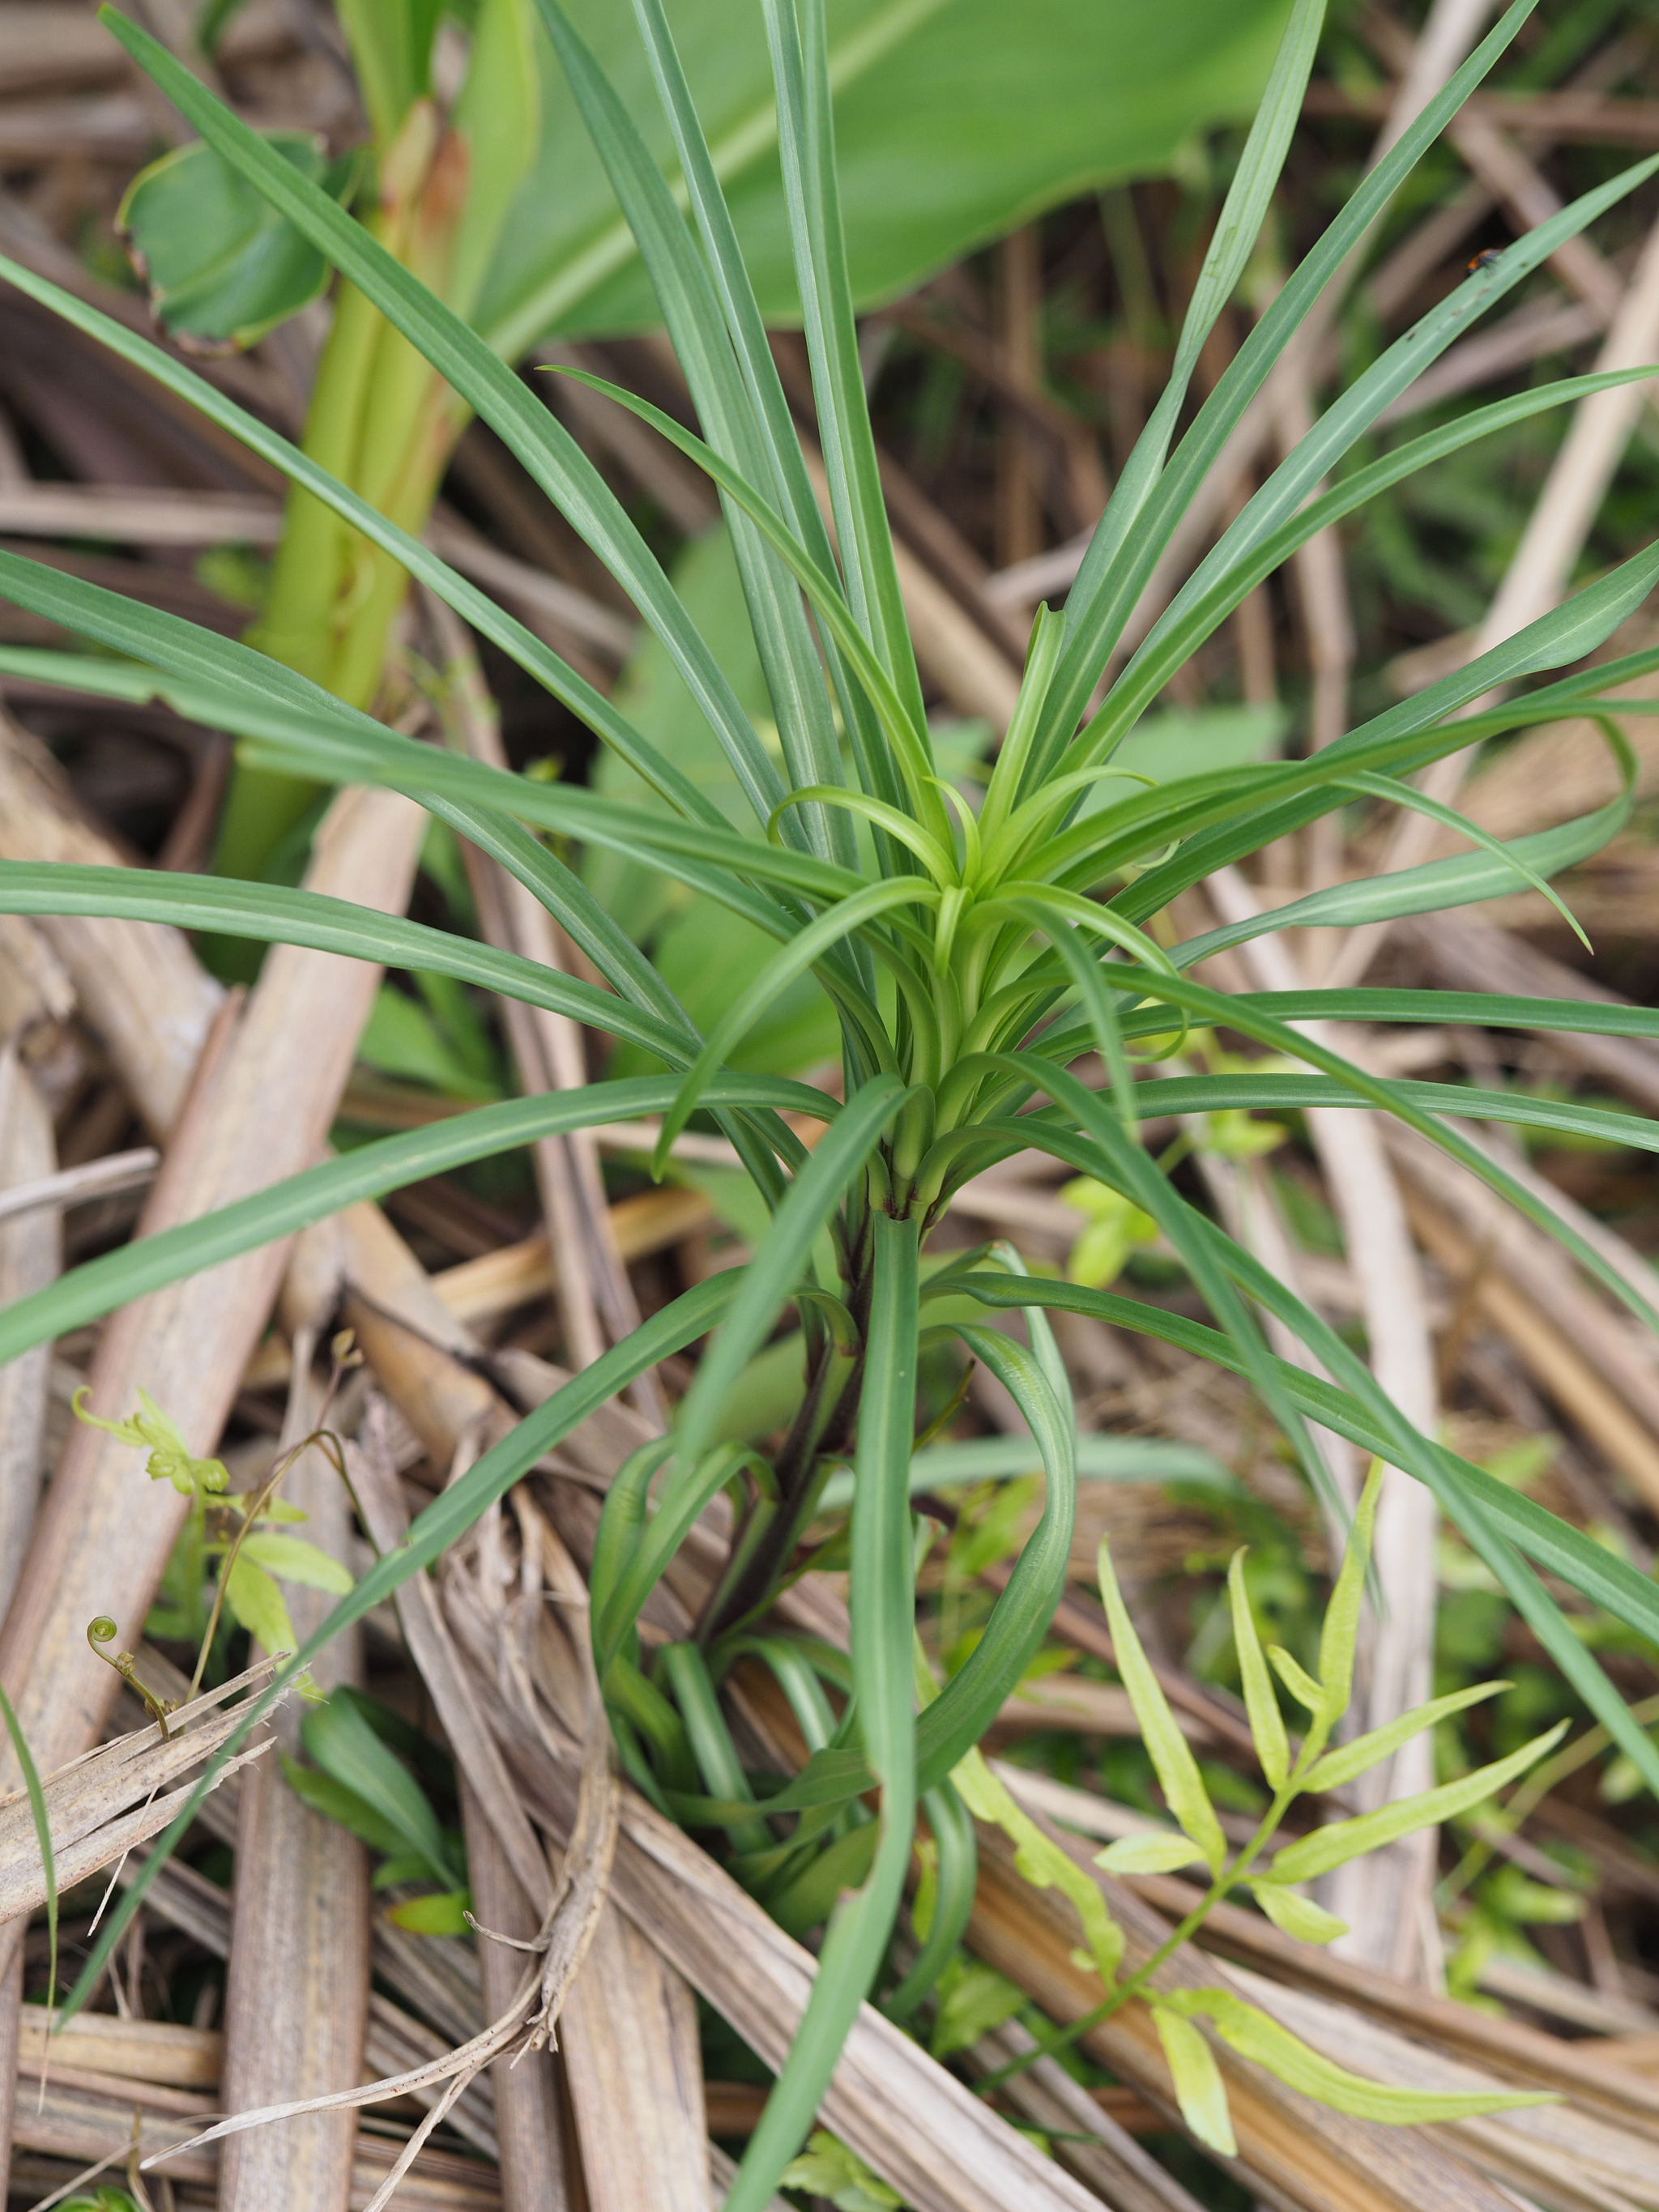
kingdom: Plantae
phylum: Tracheophyta
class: Liliopsida
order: Liliales
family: Liliaceae
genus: Lilium
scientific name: Lilium formosanum
